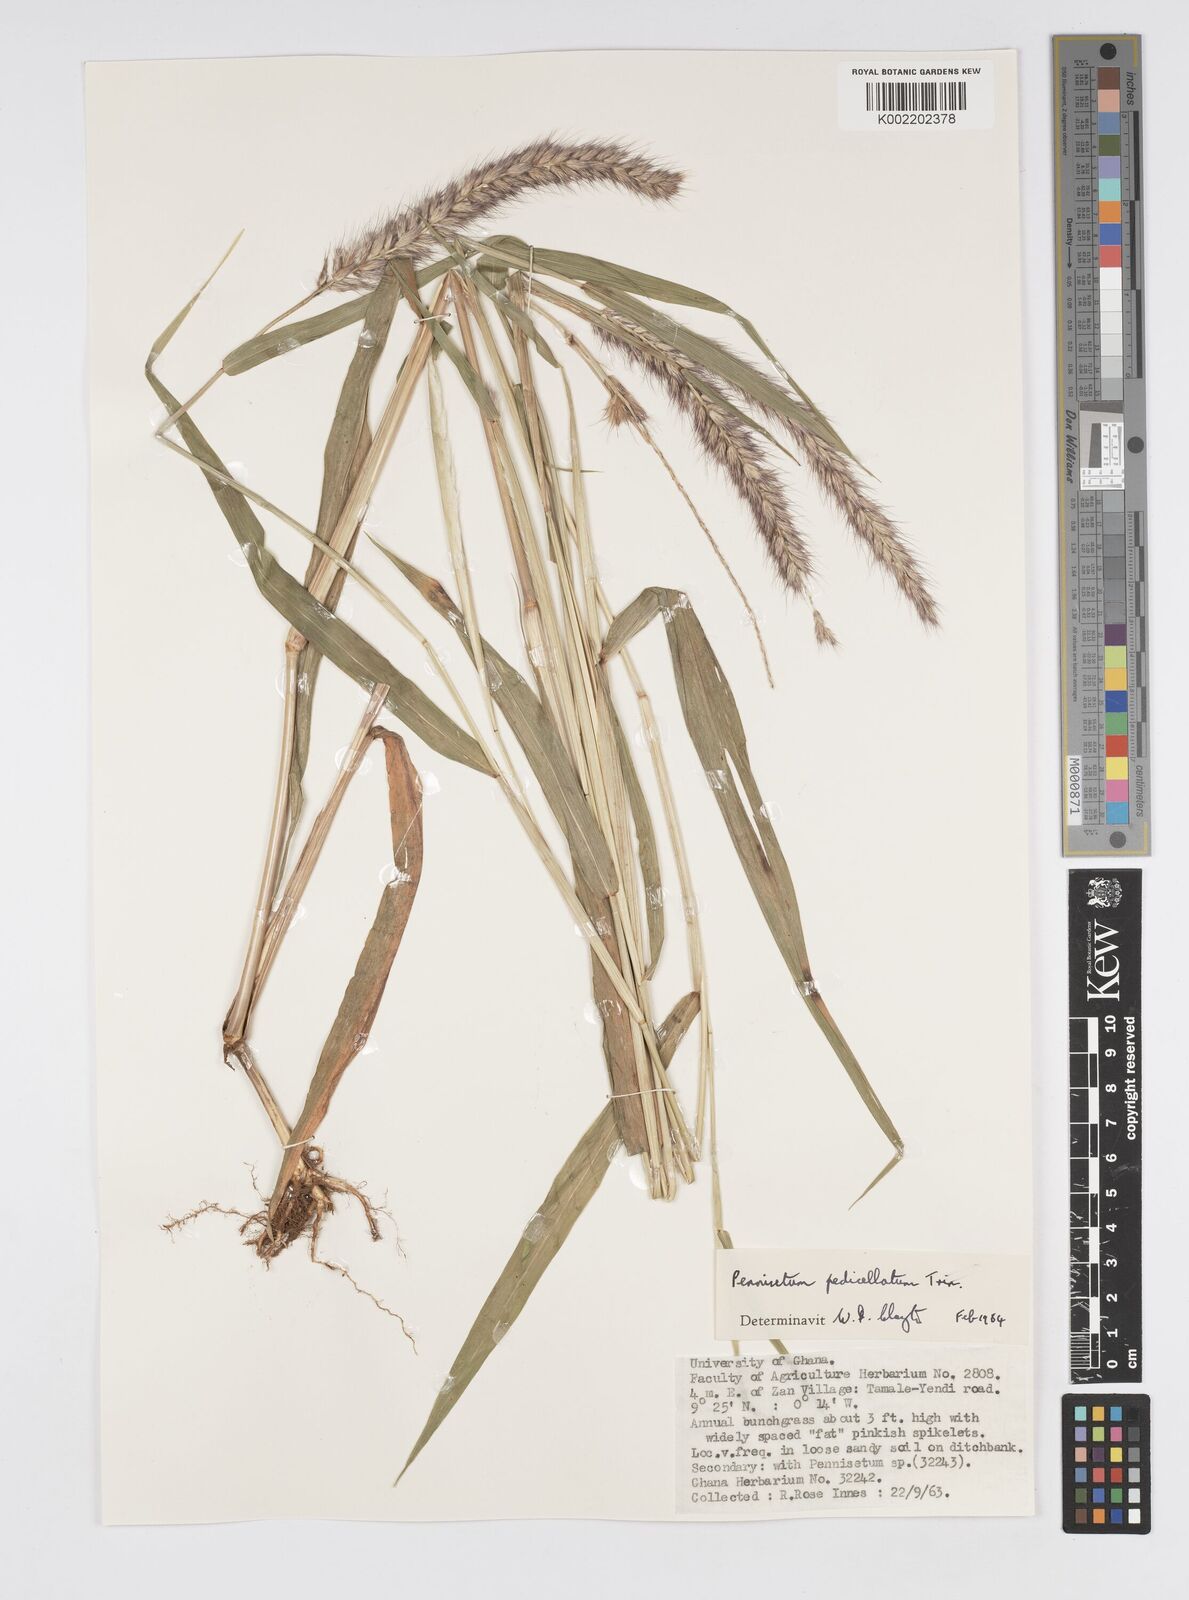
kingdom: Plantae
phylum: Tracheophyta
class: Liliopsida
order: Poales
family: Poaceae
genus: Cenchrus
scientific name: Cenchrus pedicellatus
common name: Hairy fountain grass
